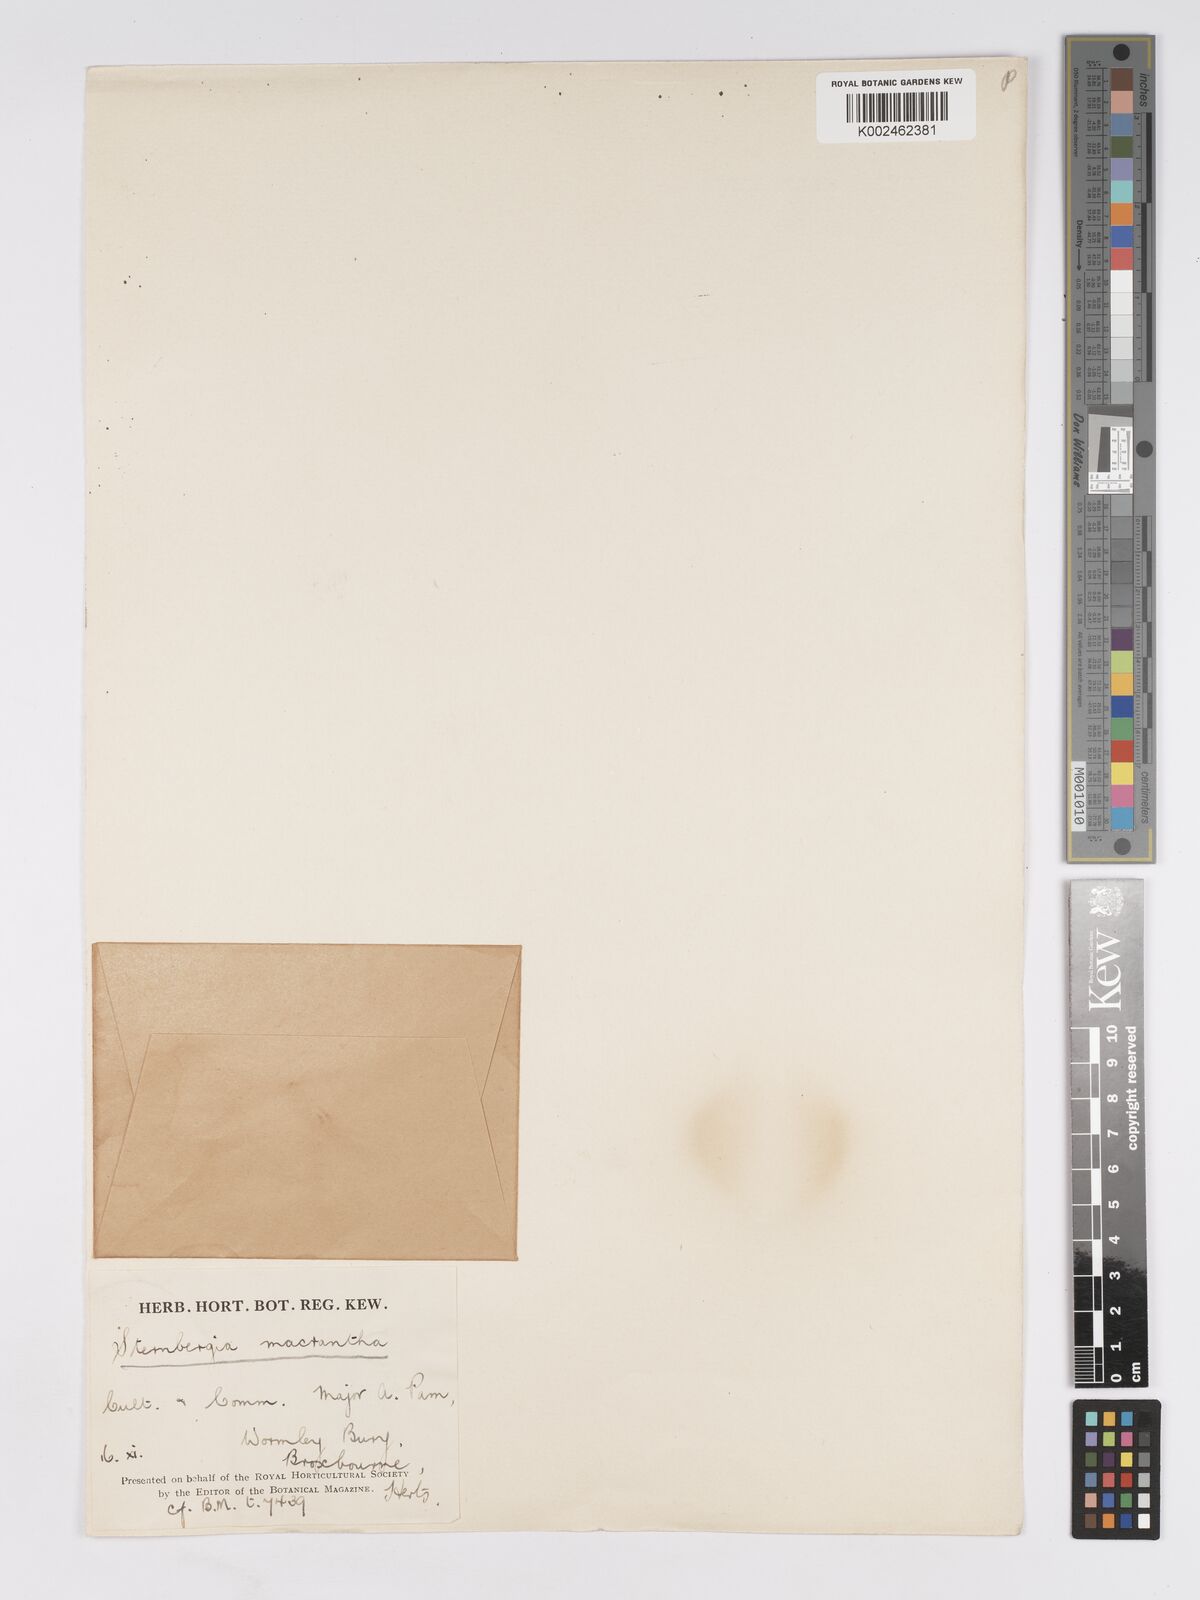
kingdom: Plantae
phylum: Tracheophyta
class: Liliopsida
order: Asparagales
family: Amaryllidaceae
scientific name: Amaryllidaceae
